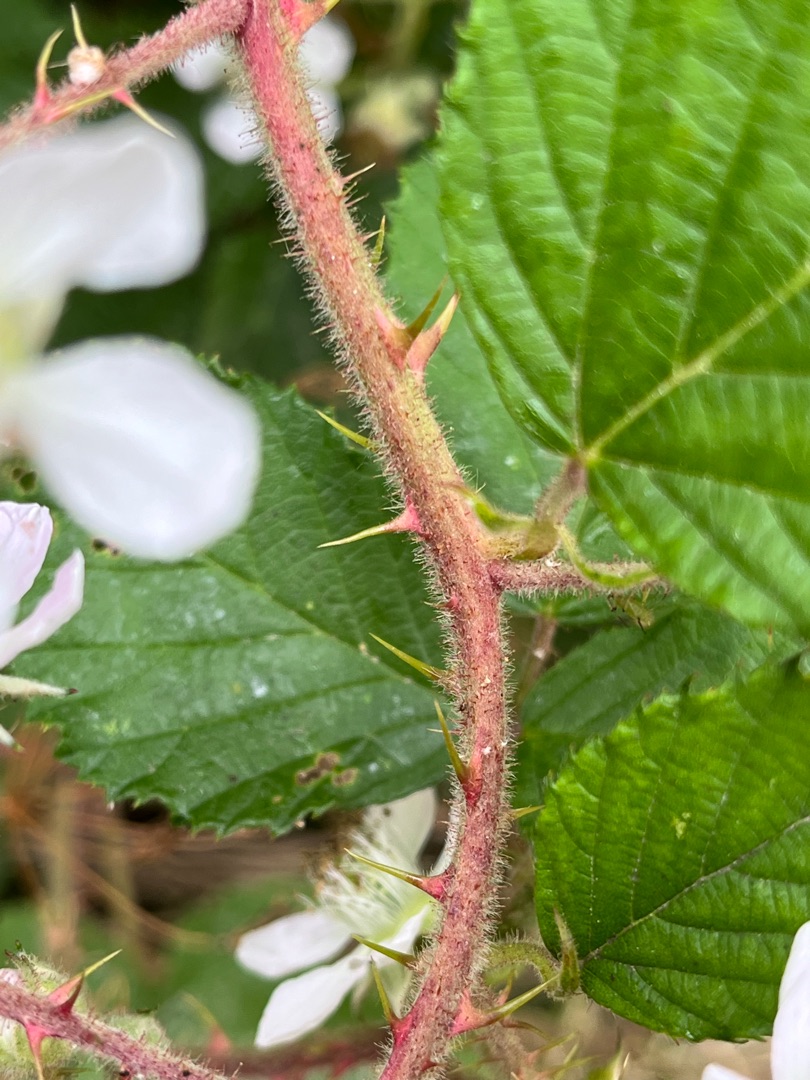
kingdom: Plantae
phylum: Tracheophyta
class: Magnoliopsida
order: Rosales
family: Rosaceae
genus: Rubus
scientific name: Rubus radula
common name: Rasperu brombær
